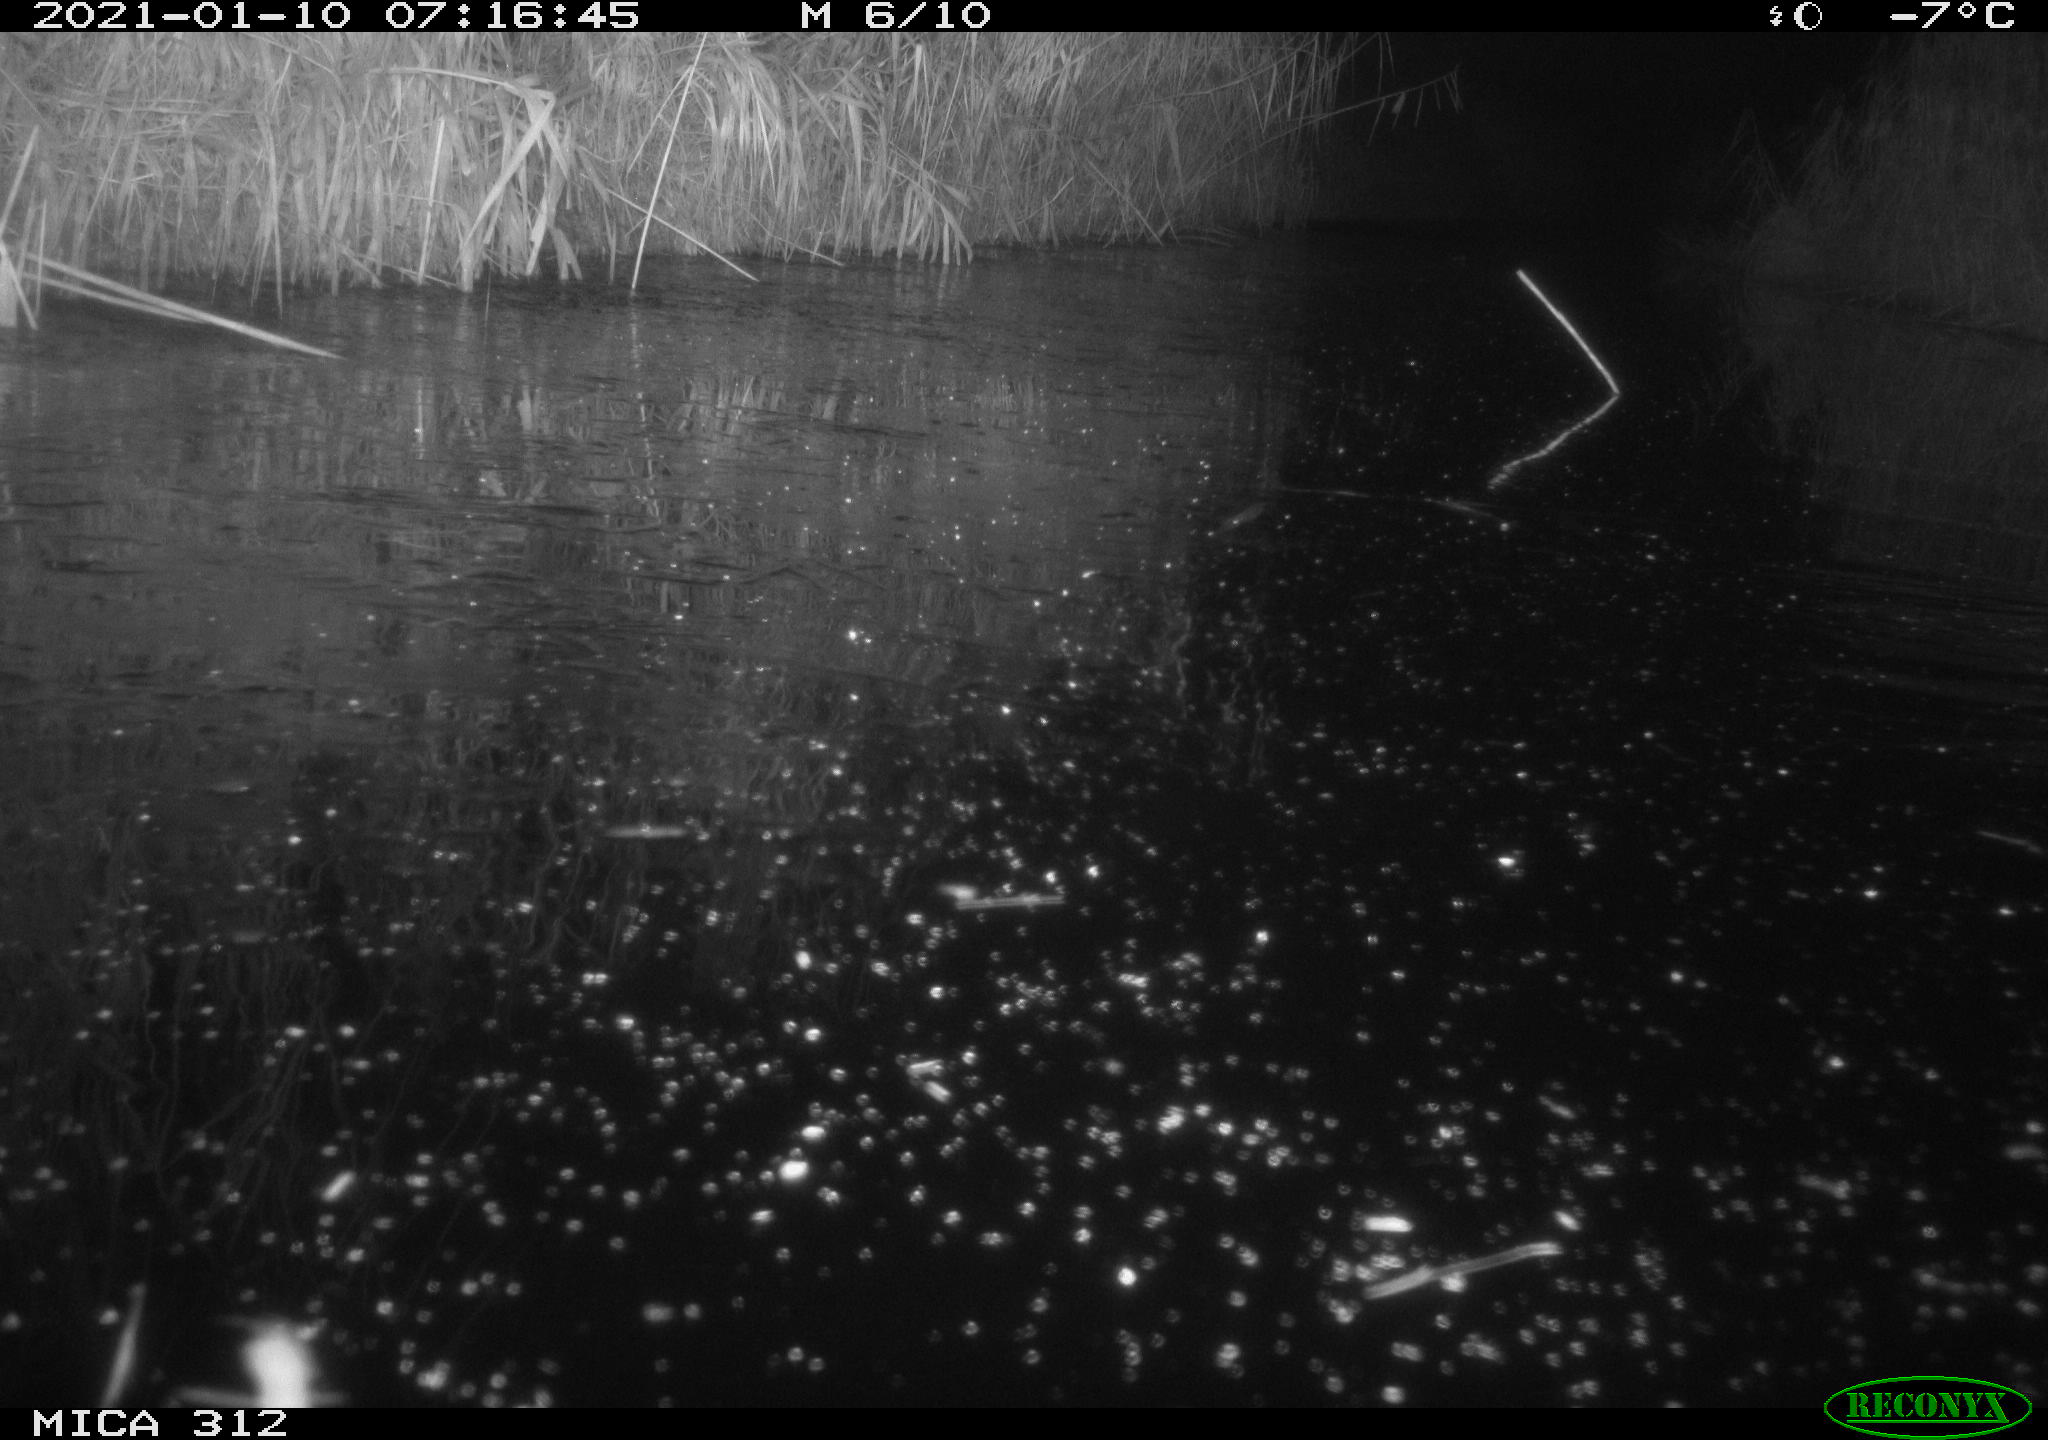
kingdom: Animalia
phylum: Chordata
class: Mammalia
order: Rodentia
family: Muridae
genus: Rattus
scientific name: Rattus norvegicus
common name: Brown rat
